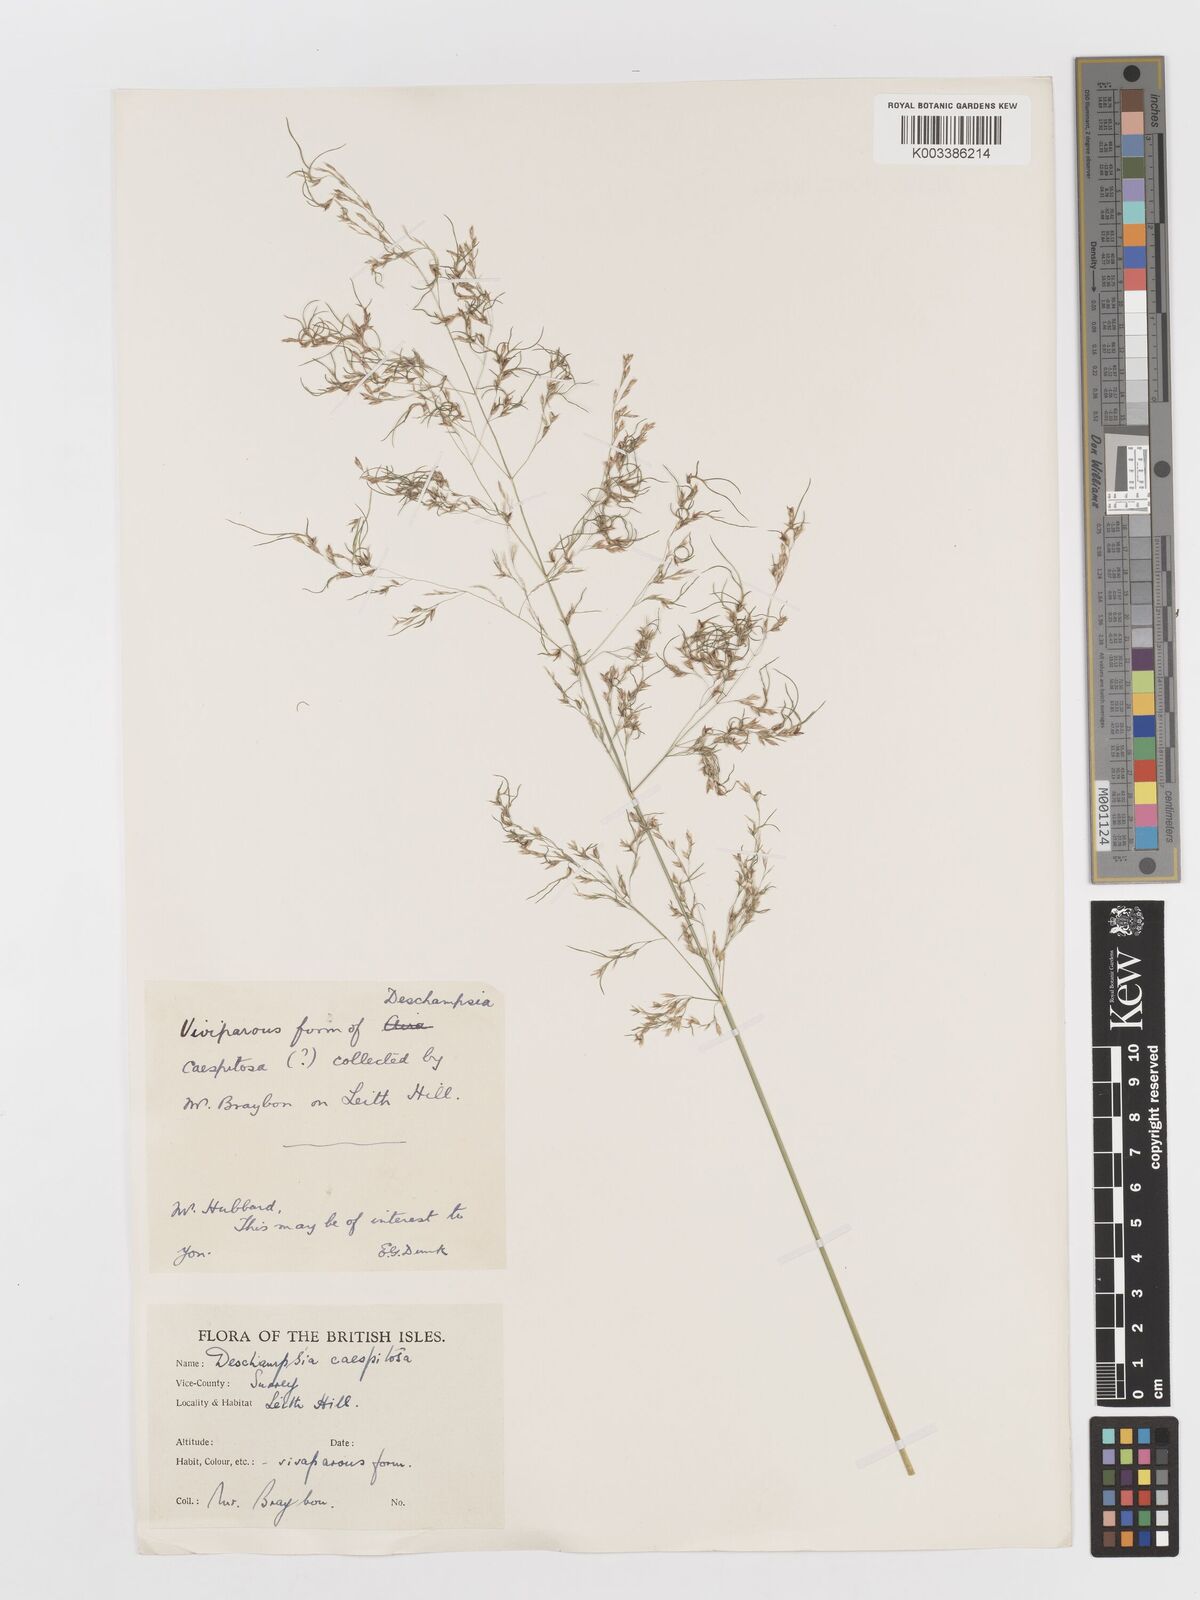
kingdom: Plantae
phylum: Tracheophyta
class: Liliopsida
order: Poales
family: Poaceae
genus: Deschampsia
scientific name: Deschampsia
